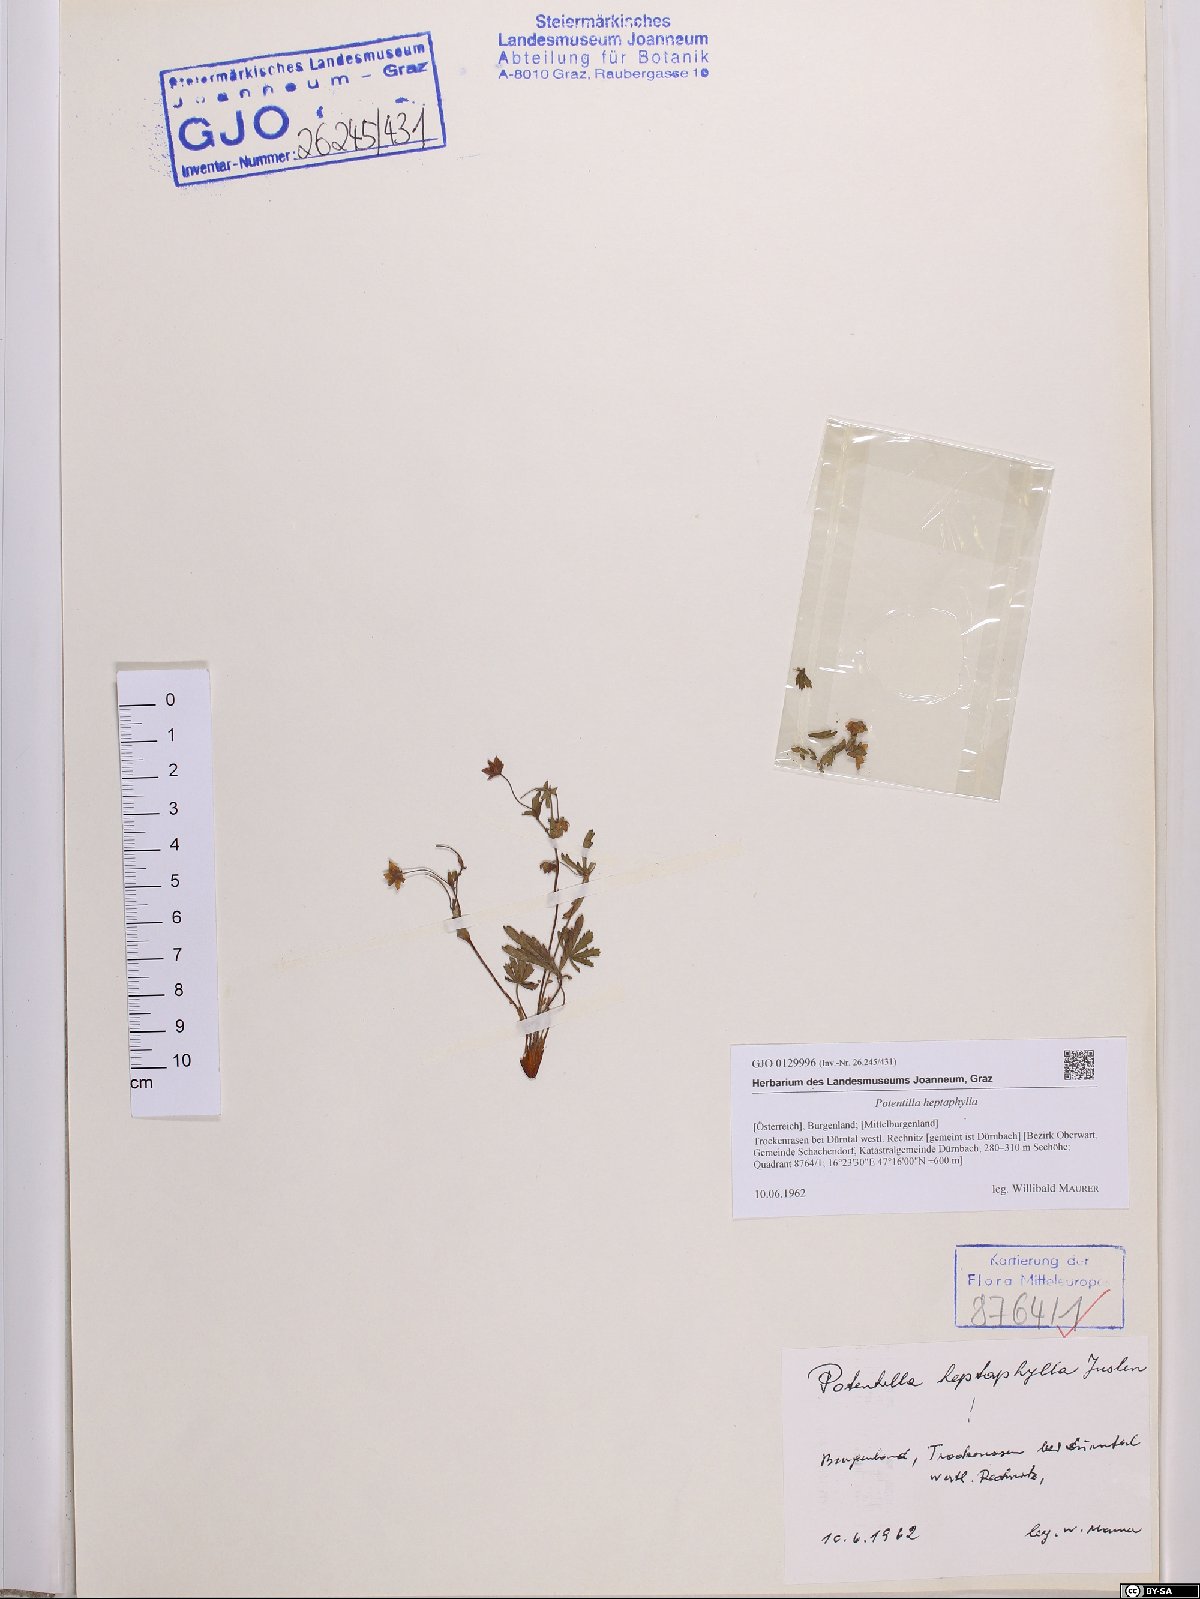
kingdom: Plantae
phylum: Tracheophyta
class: Magnoliopsida
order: Rosales
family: Rosaceae
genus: Potentilla
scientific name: Potentilla heptaphylla
